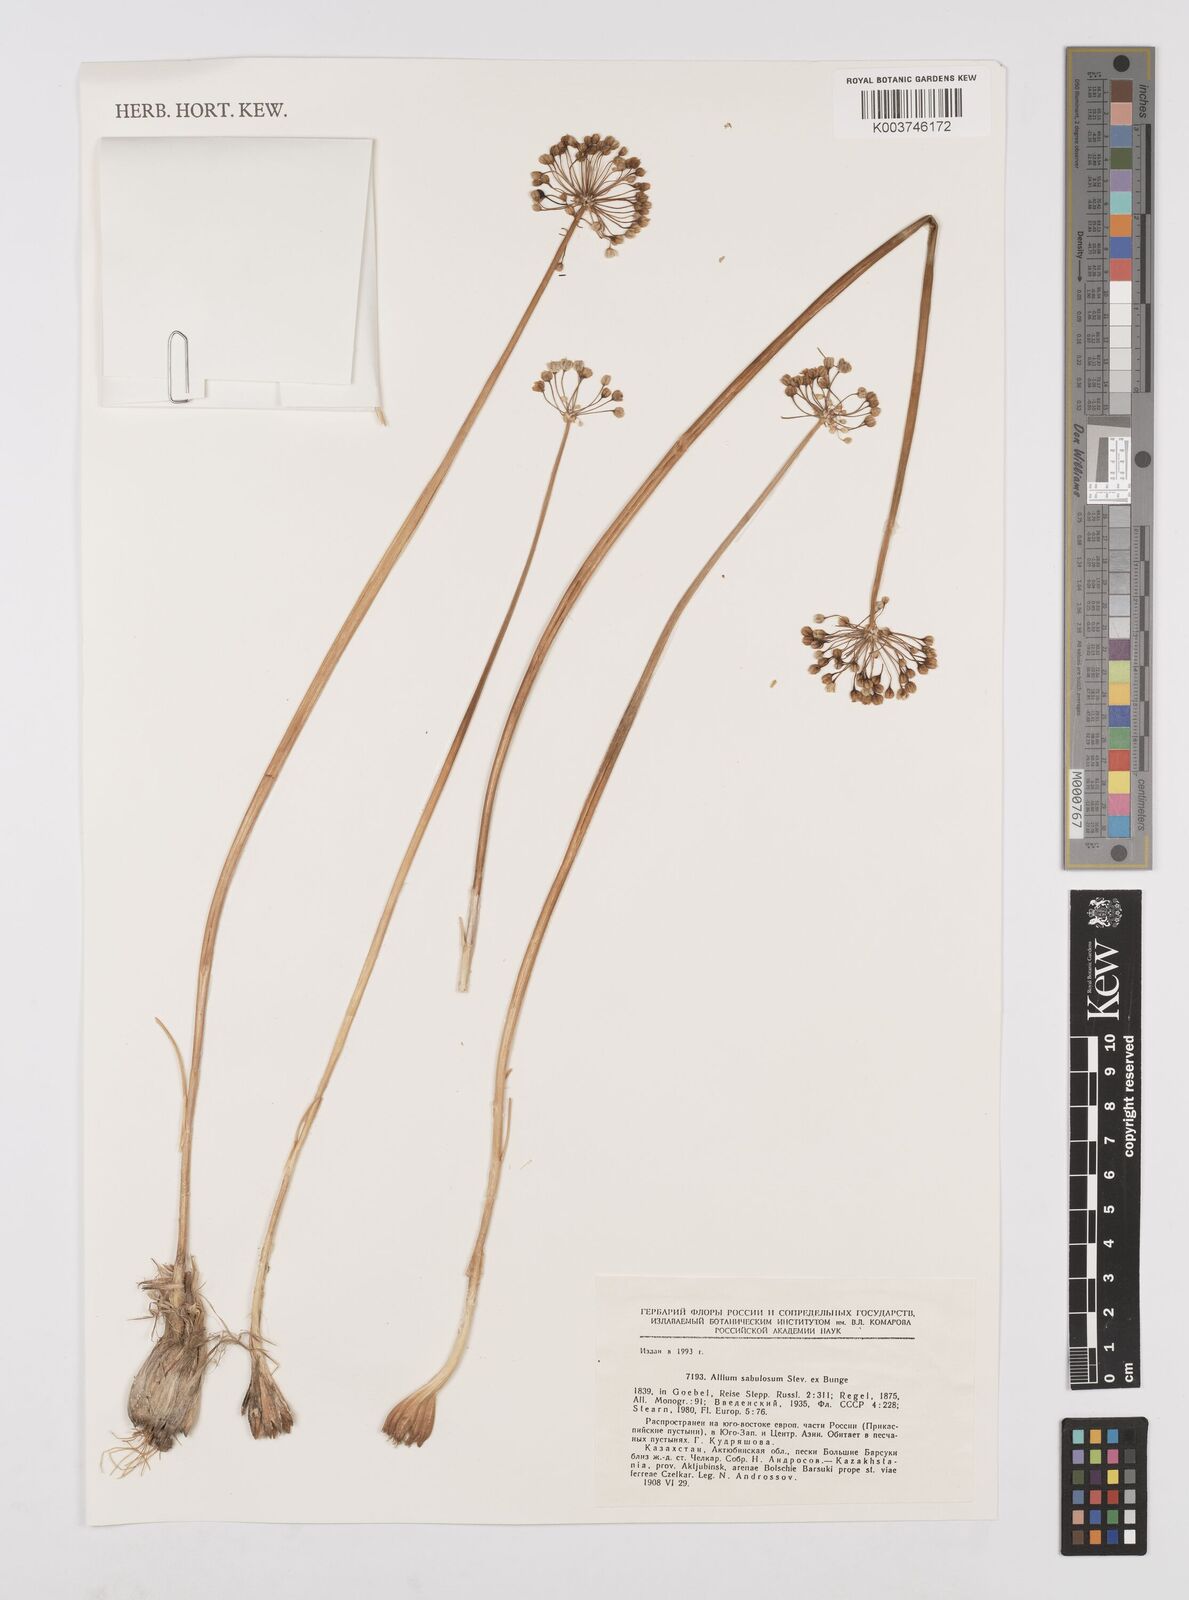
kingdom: Plantae
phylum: Tracheophyta
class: Liliopsida
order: Asparagales
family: Amaryllidaceae
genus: Allium
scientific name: Allium sabulosum
